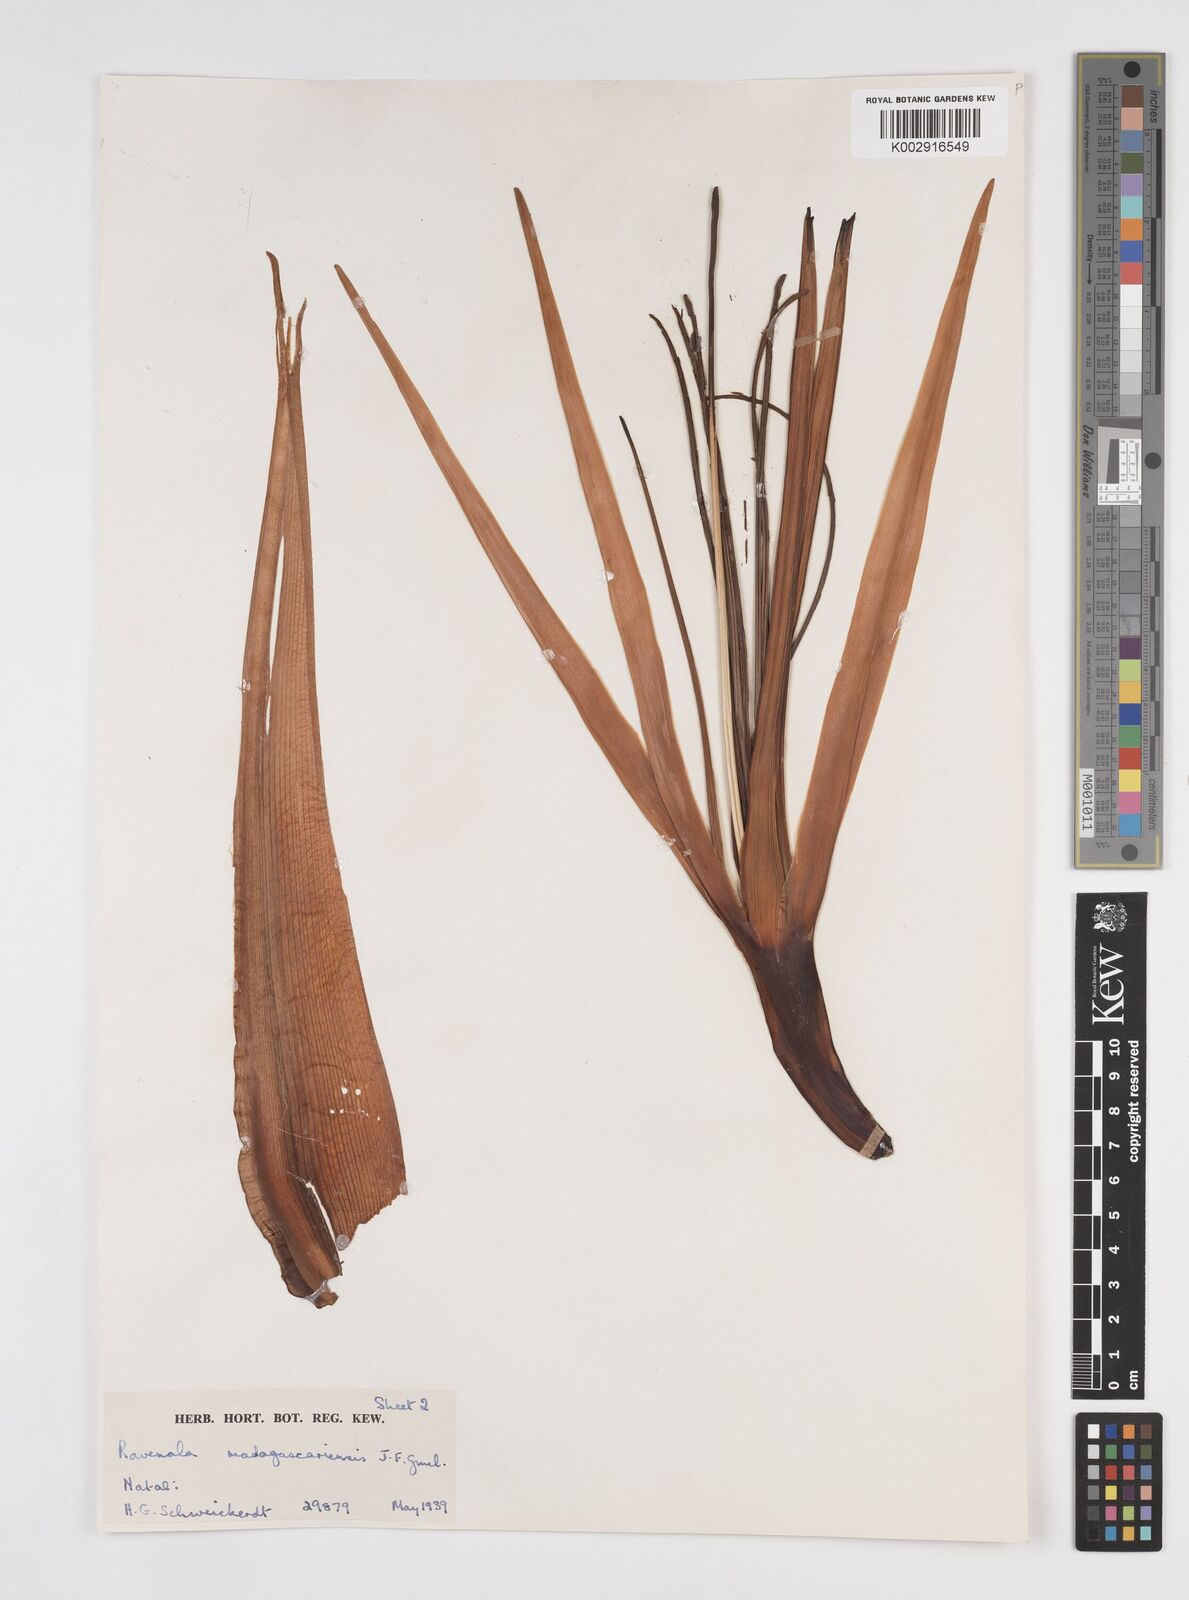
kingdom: Plantae
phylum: Tracheophyta
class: Liliopsida
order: Zingiberales
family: Strelitziaceae
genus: Ravenala
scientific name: Ravenala madagascariensis
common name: Traveler's-palm
